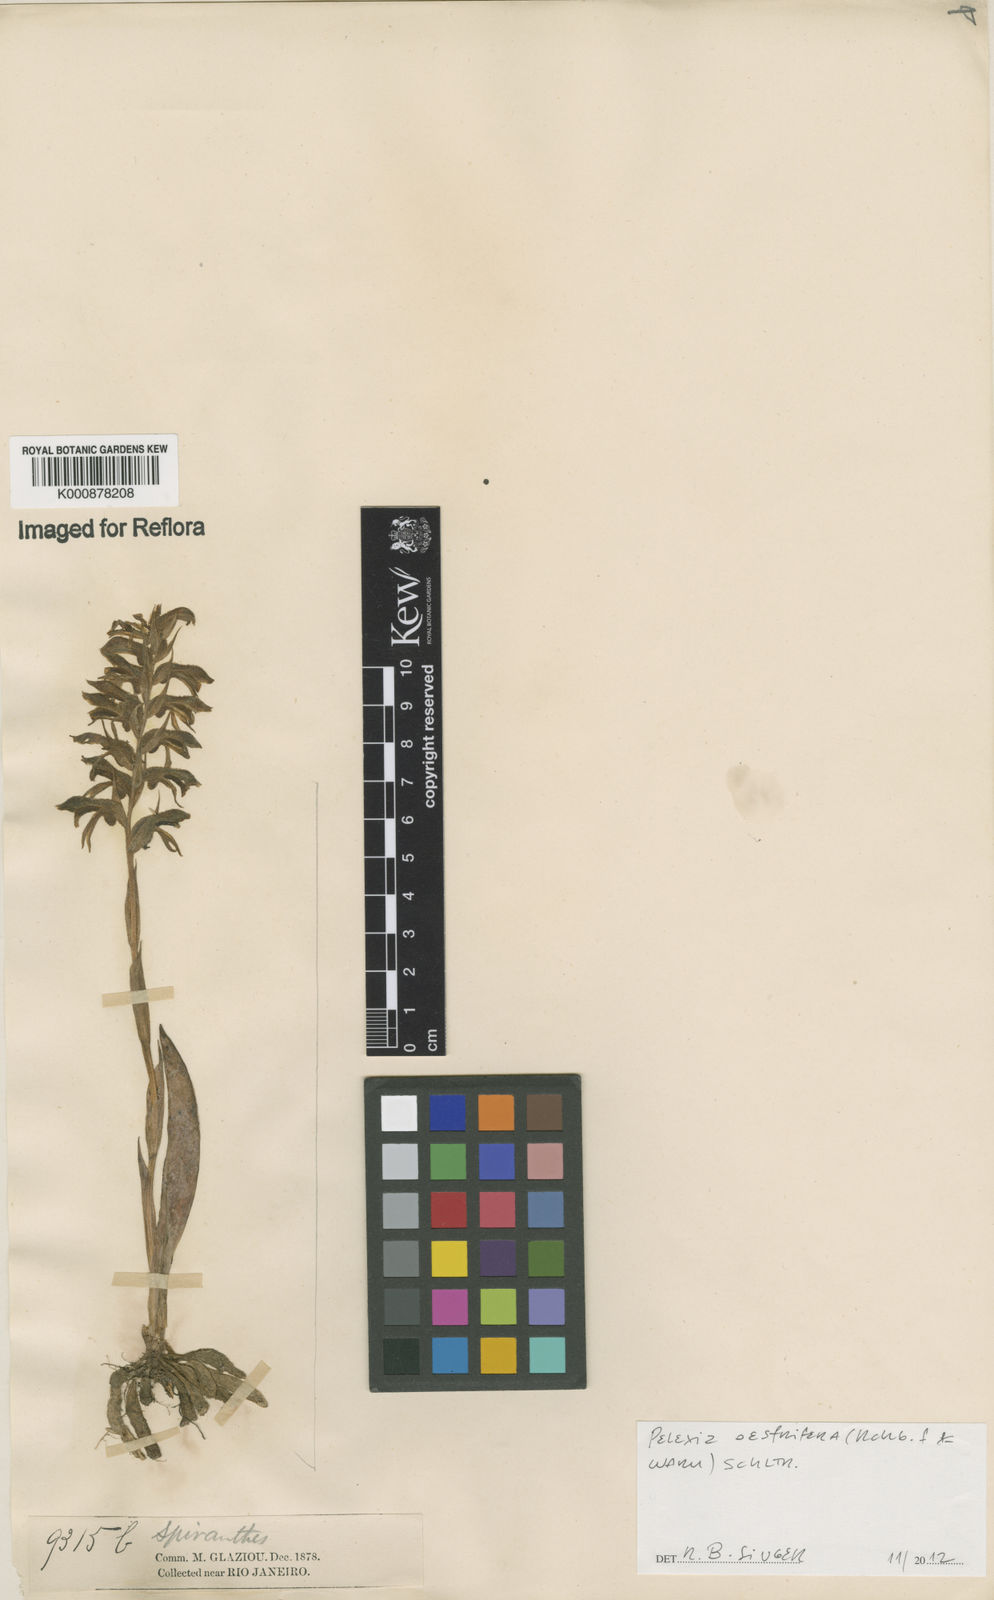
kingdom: Plantae
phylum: Tracheophyta
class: Liliopsida
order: Asparagales
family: Orchidaceae
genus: Pelexia
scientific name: Pelexia oestrifera
